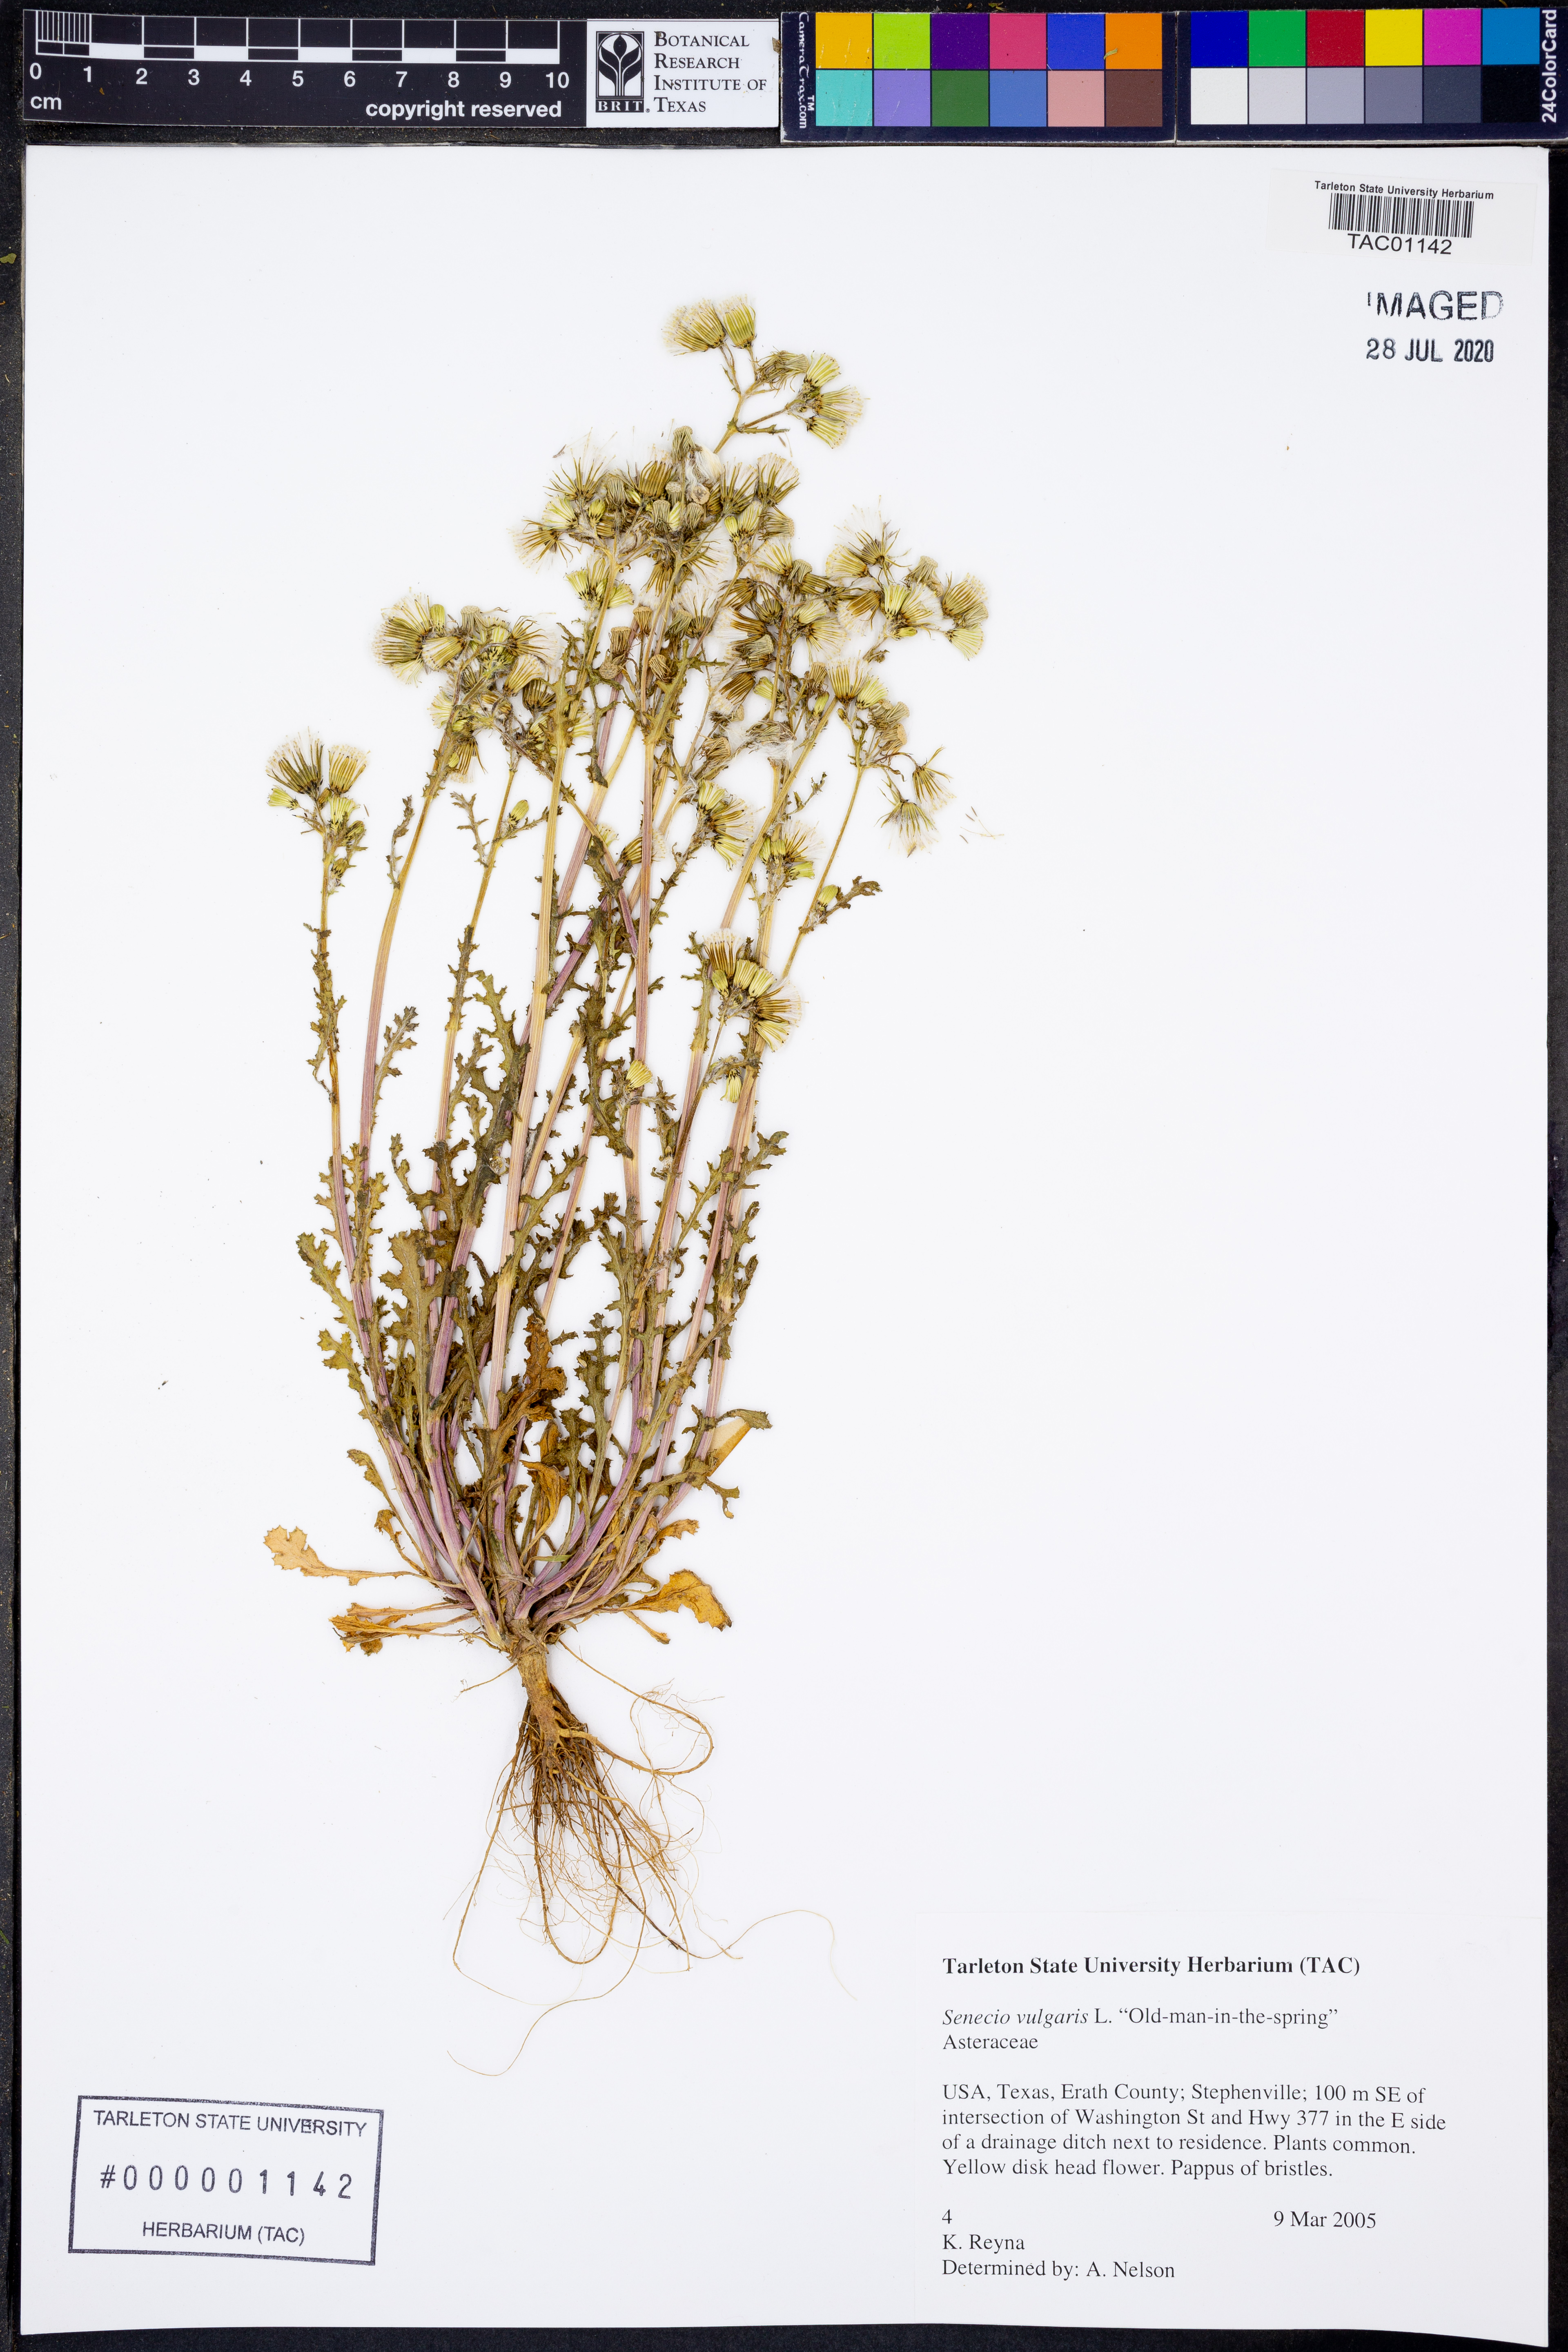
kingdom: Plantae
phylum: Tracheophyta
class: Magnoliopsida
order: Asterales
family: Asteraceae
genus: Senecio
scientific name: Senecio vulgaris
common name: Old-man-in-the-spring
